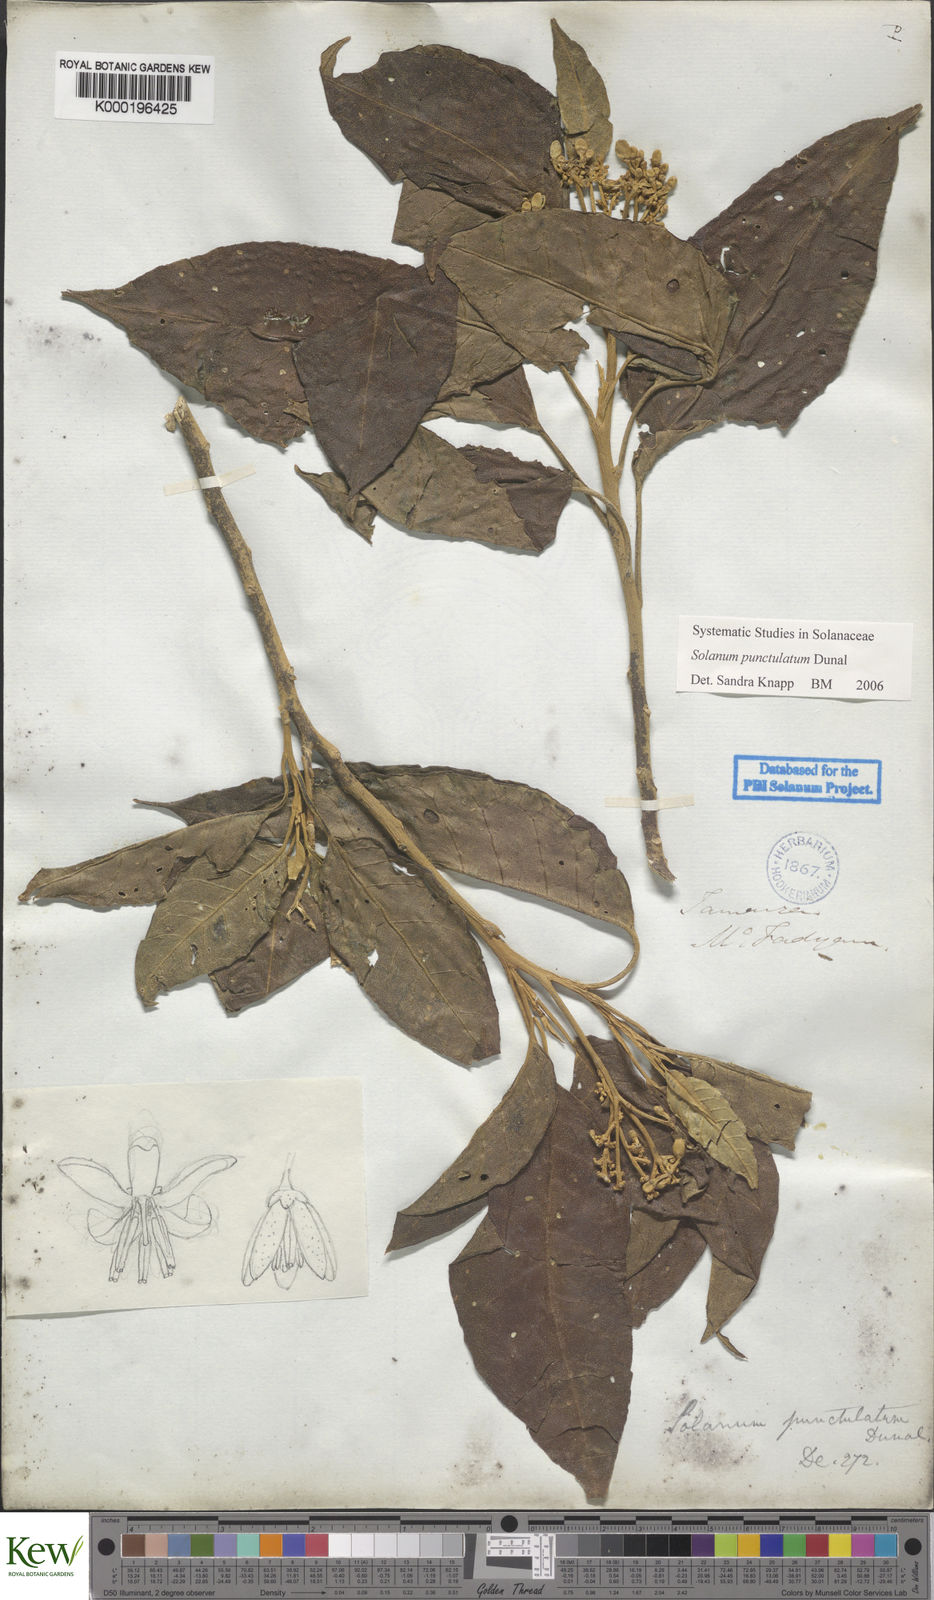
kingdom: Plantae
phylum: Tracheophyta
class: Magnoliopsida
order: Solanales
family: Solanaceae
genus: Solanum
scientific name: Solanum punctulatum
